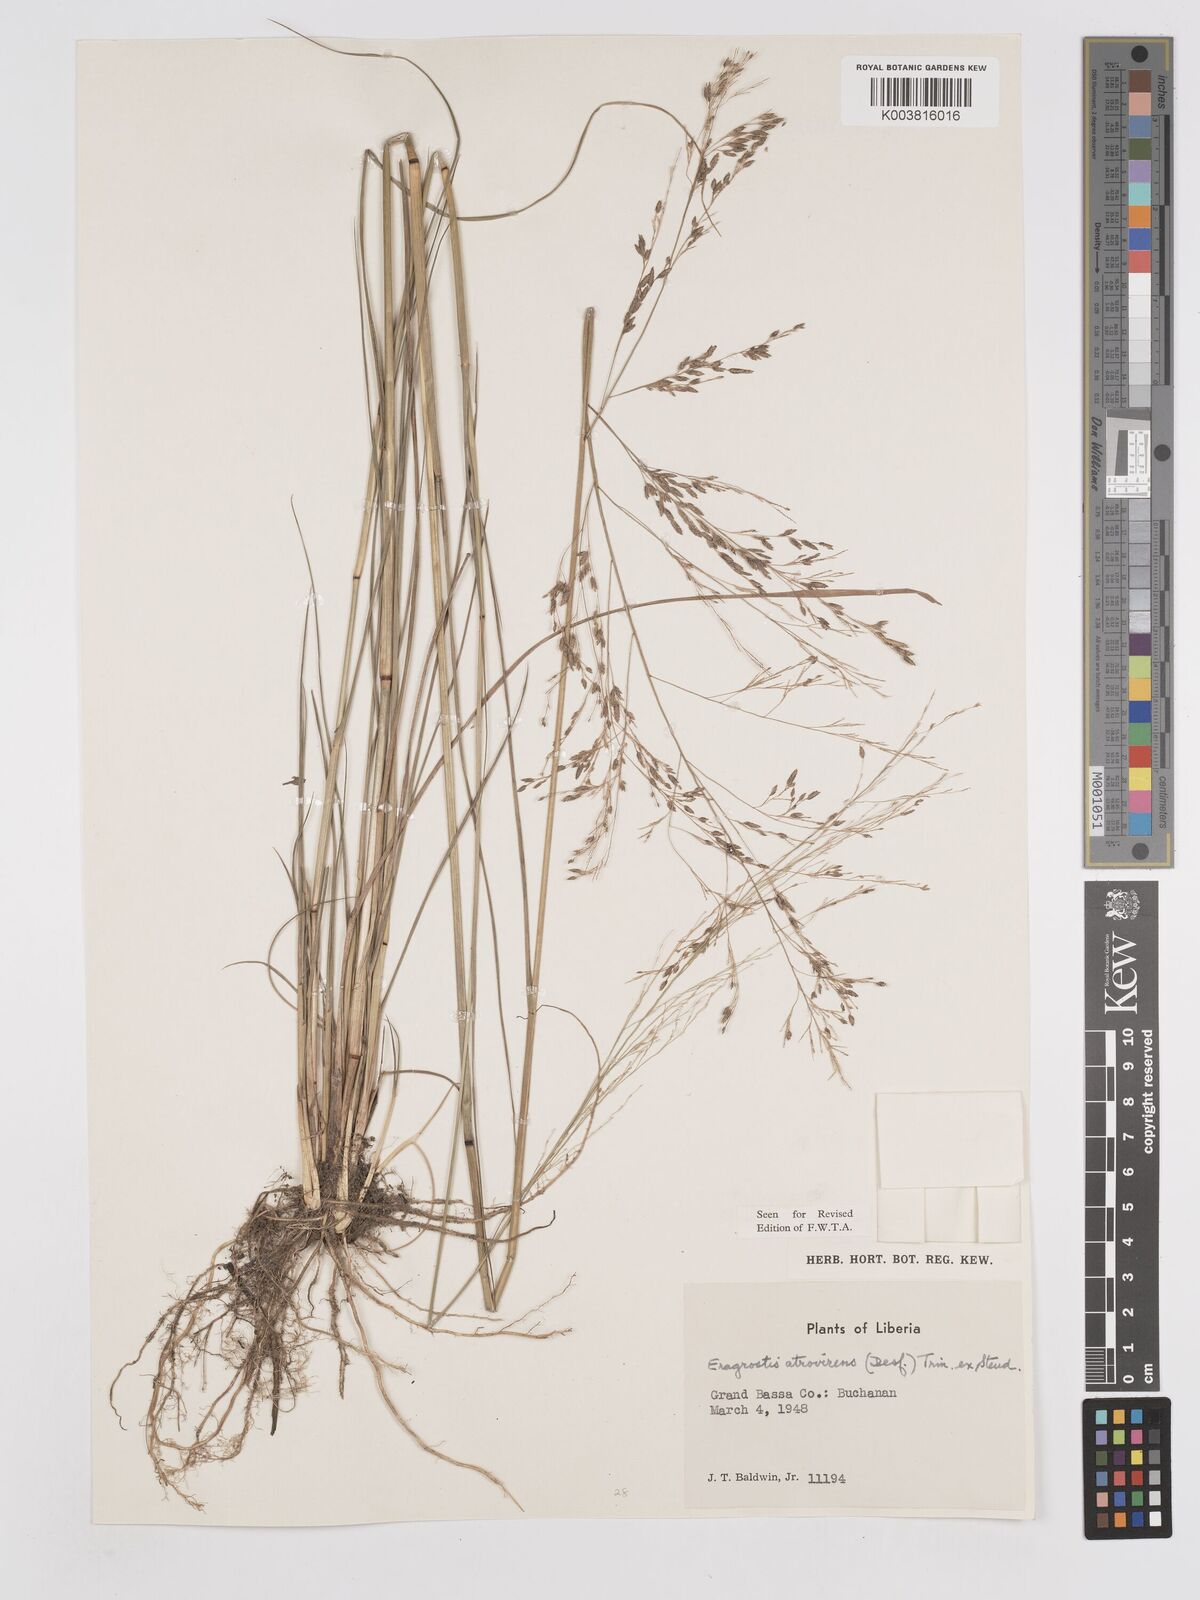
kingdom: Plantae
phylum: Tracheophyta
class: Liliopsida
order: Poales
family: Poaceae
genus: Eragrostis
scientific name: Eragrostis atrovirens
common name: Thalia lovegrass
